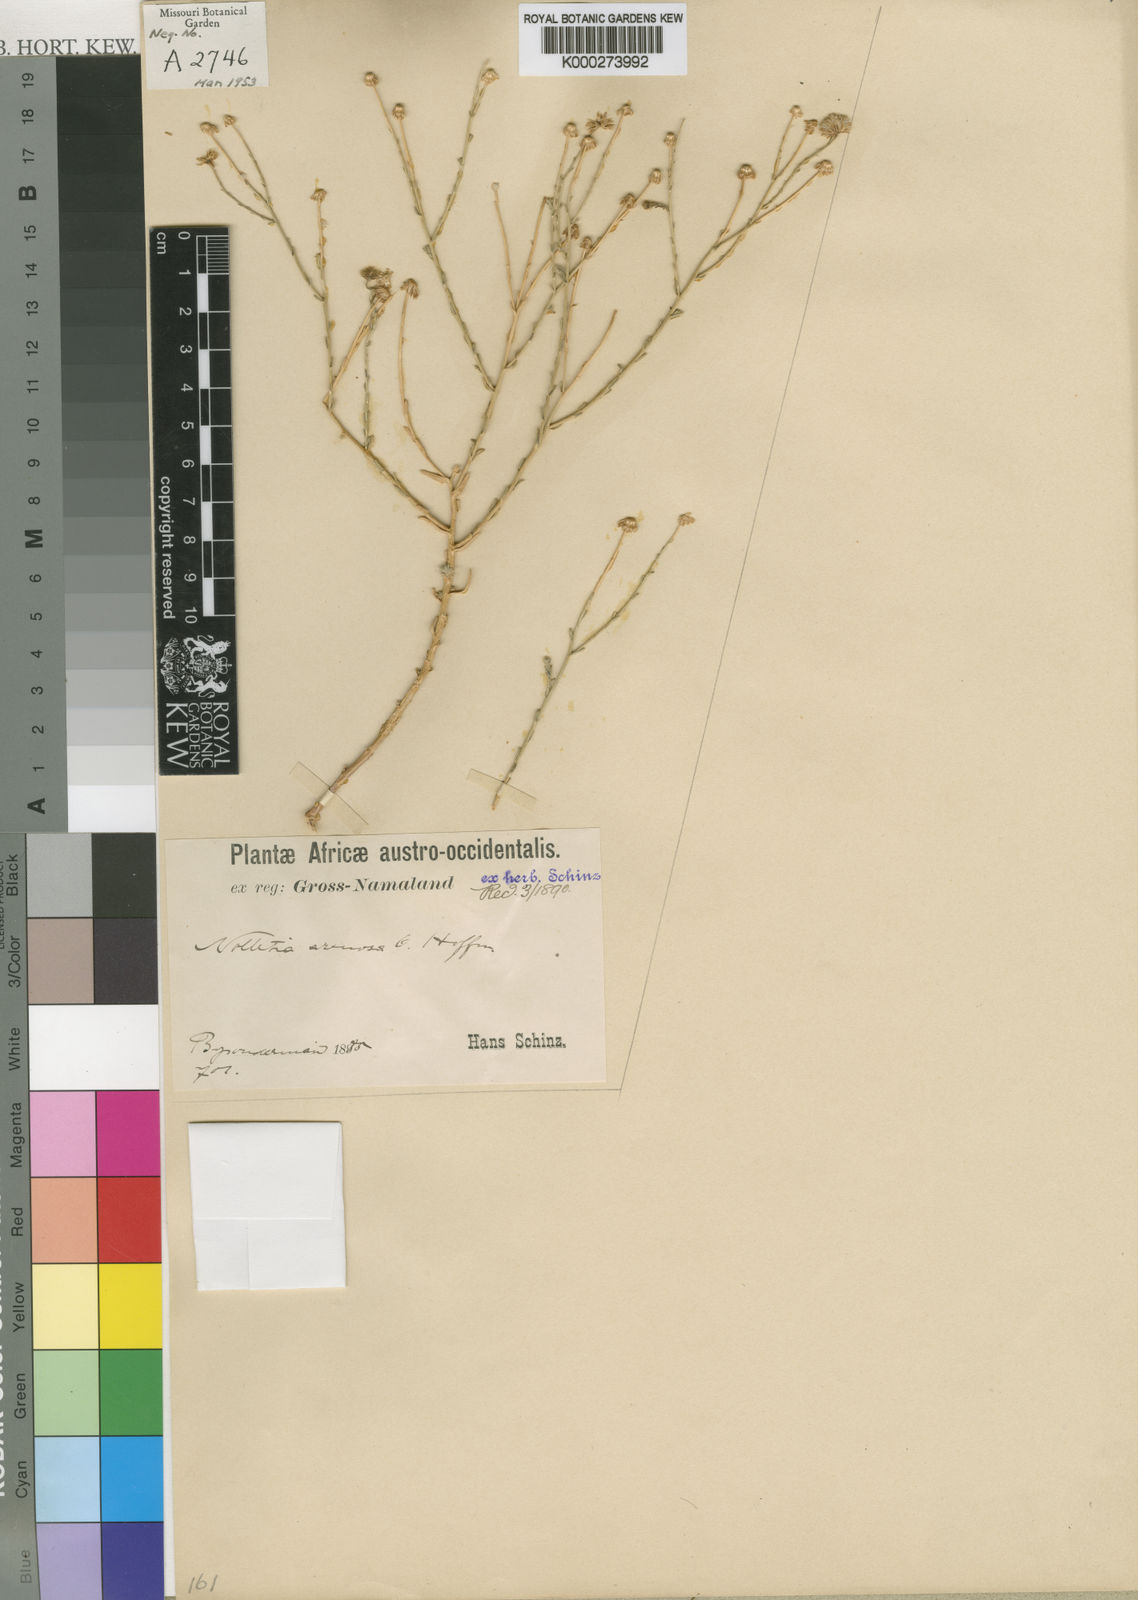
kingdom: Plantae
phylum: Tracheophyta
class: Magnoliopsida
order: Asterales
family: Asteraceae
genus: Nolletia
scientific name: Nolletia arenosa
